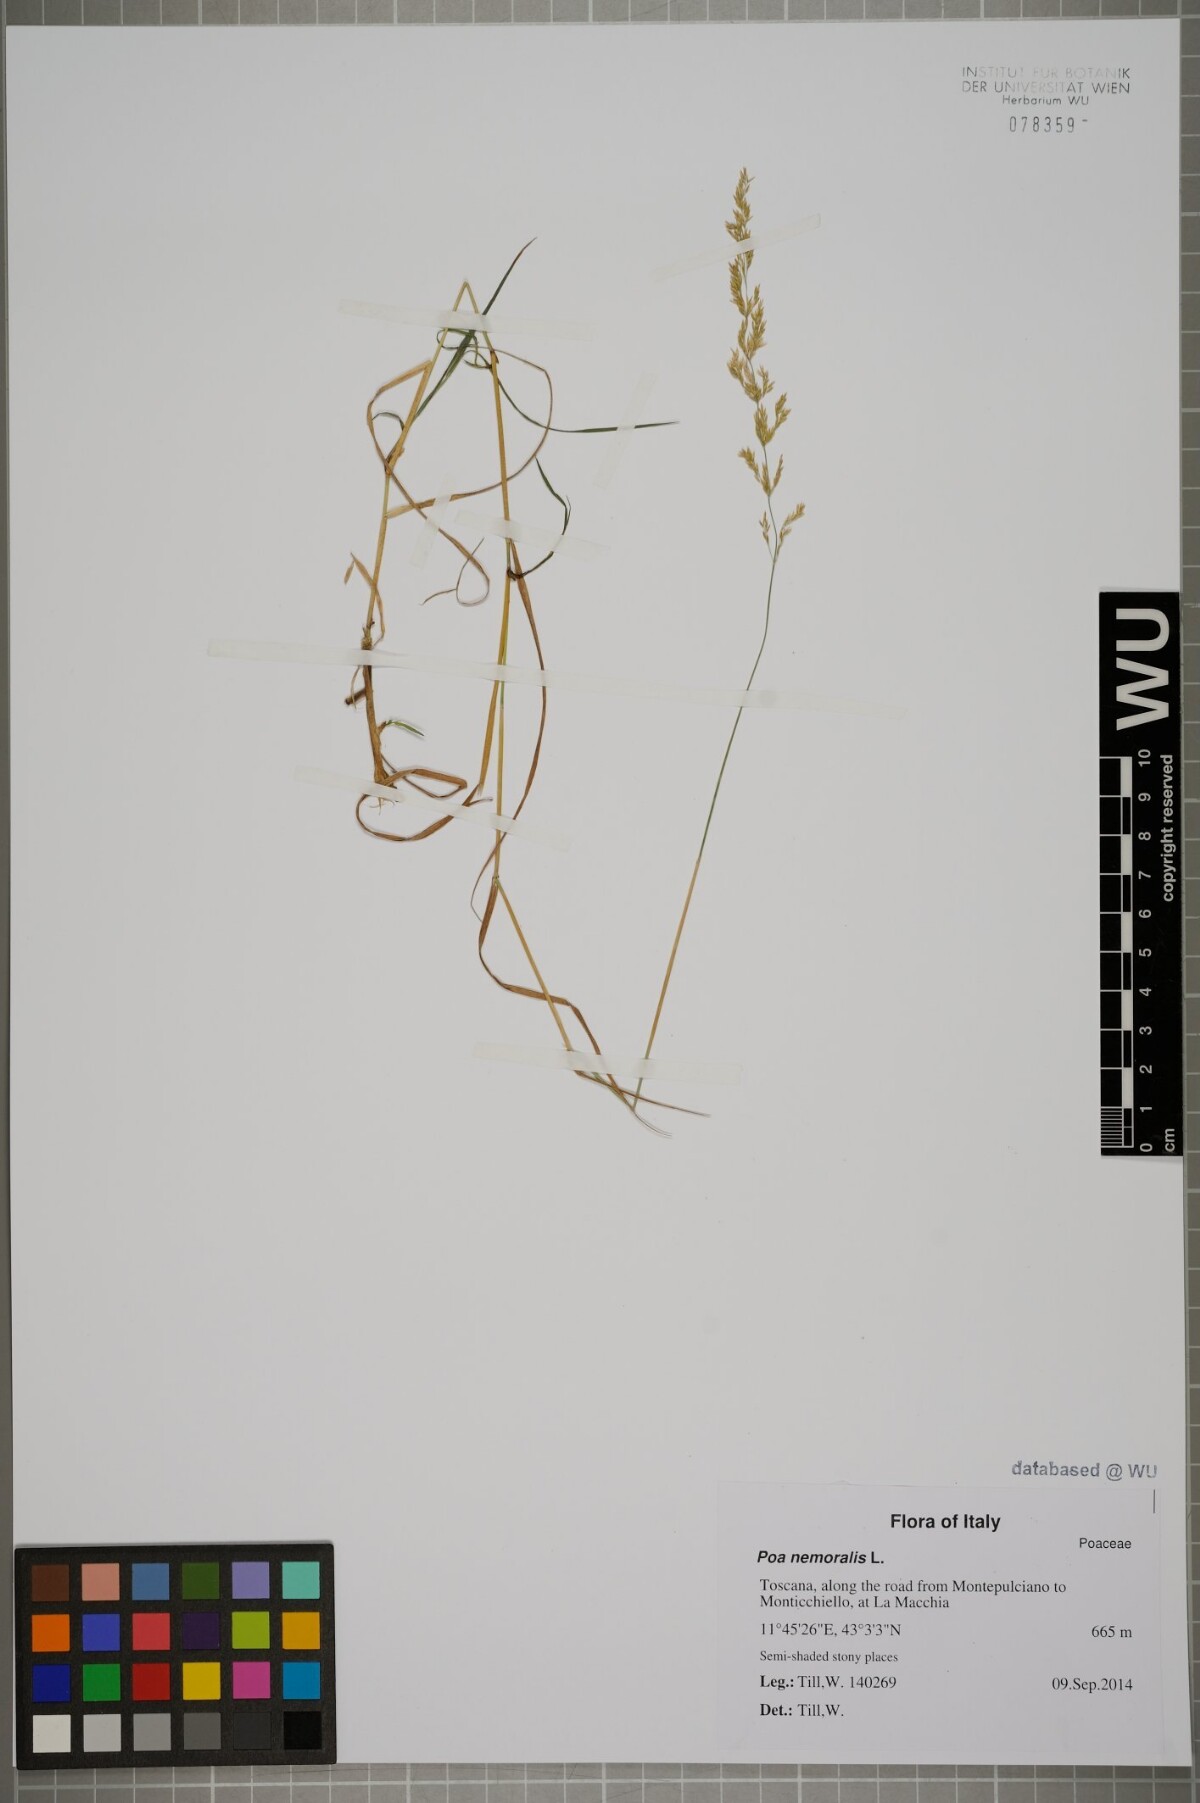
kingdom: Plantae
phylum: Tracheophyta
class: Liliopsida
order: Poales
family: Poaceae
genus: Poa
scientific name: Poa nemoralis
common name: Wood bluegrass
